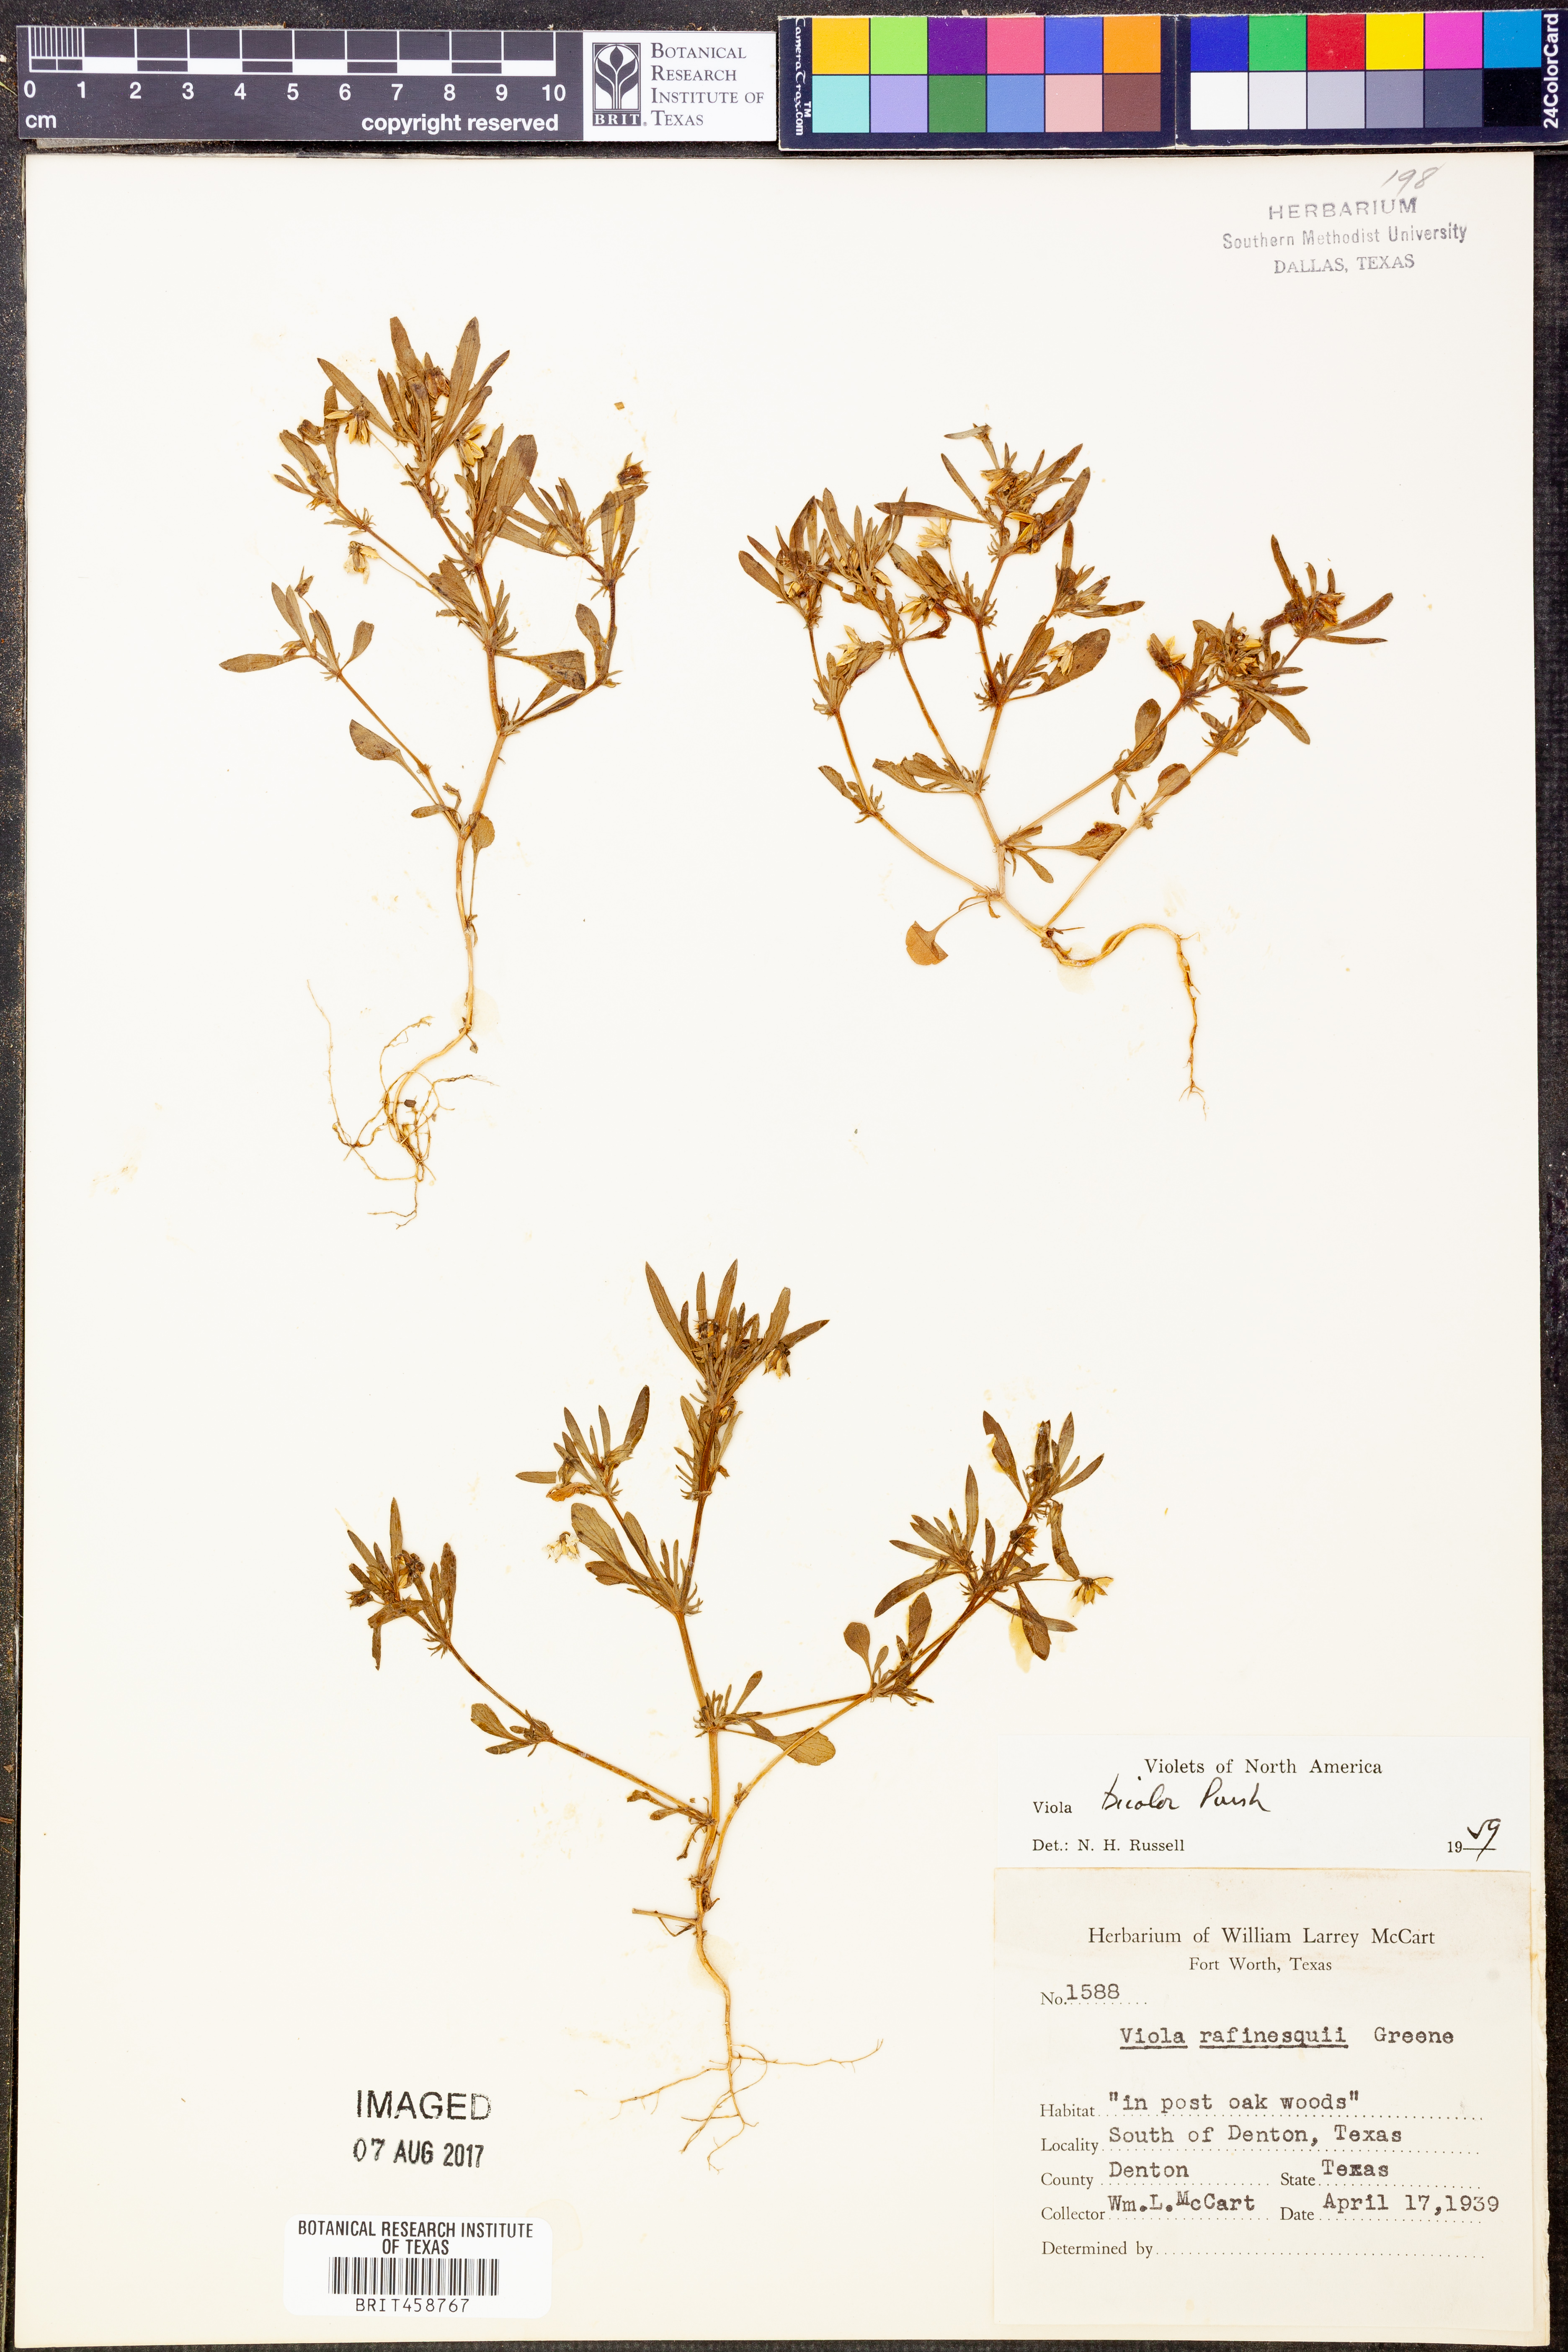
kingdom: Plantae
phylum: Tracheophyta
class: Magnoliopsida
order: Malpighiales
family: Violaceae
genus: Viola
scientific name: Viola rafinesquei
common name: American field pansy
